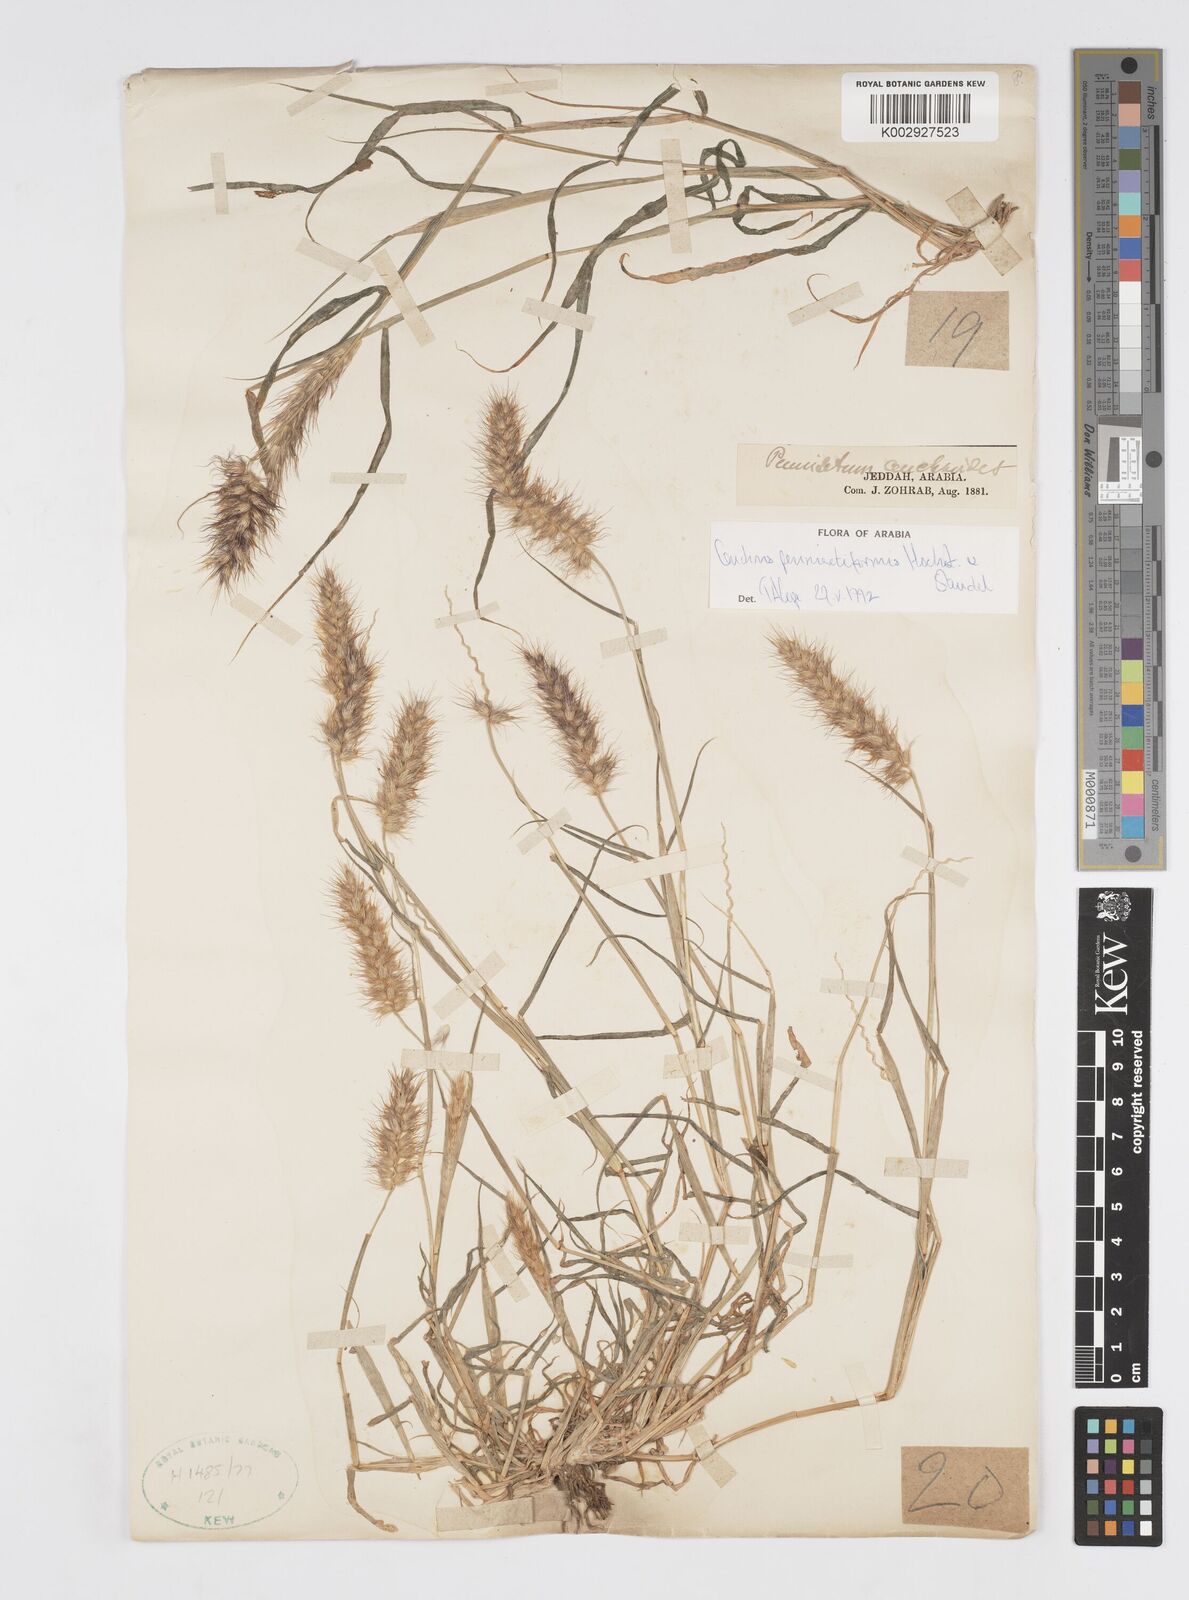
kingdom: Plantae
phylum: Tracheophyta
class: Liliopsida
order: Poales
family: Poaceae
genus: Cenchrus
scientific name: Cenchrus pennisetiformis
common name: Cloncurry
